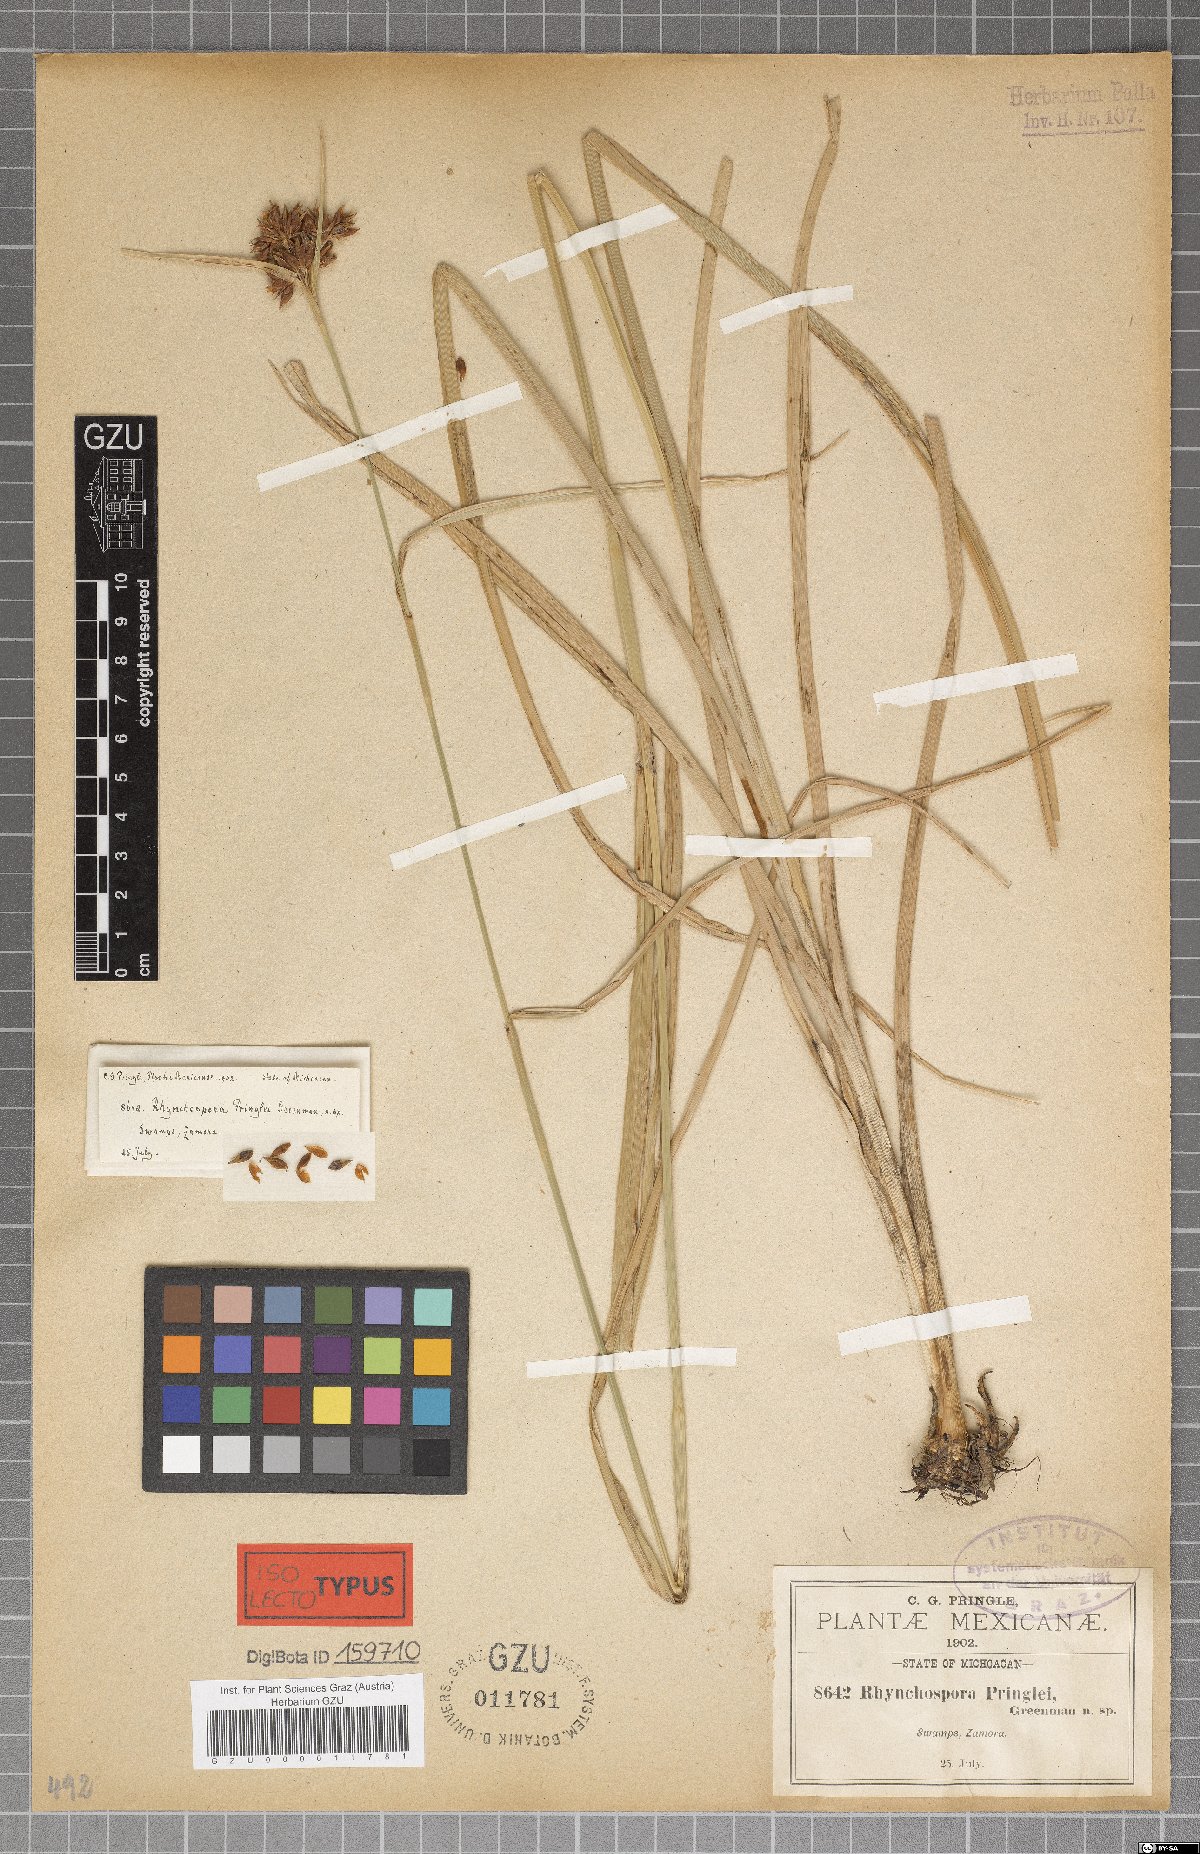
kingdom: Plantae
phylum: Tracheophyta
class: Liliopsida
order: Poales
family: Cyperaceae
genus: Rhynchospora
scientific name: Rhynchospora scutellata
